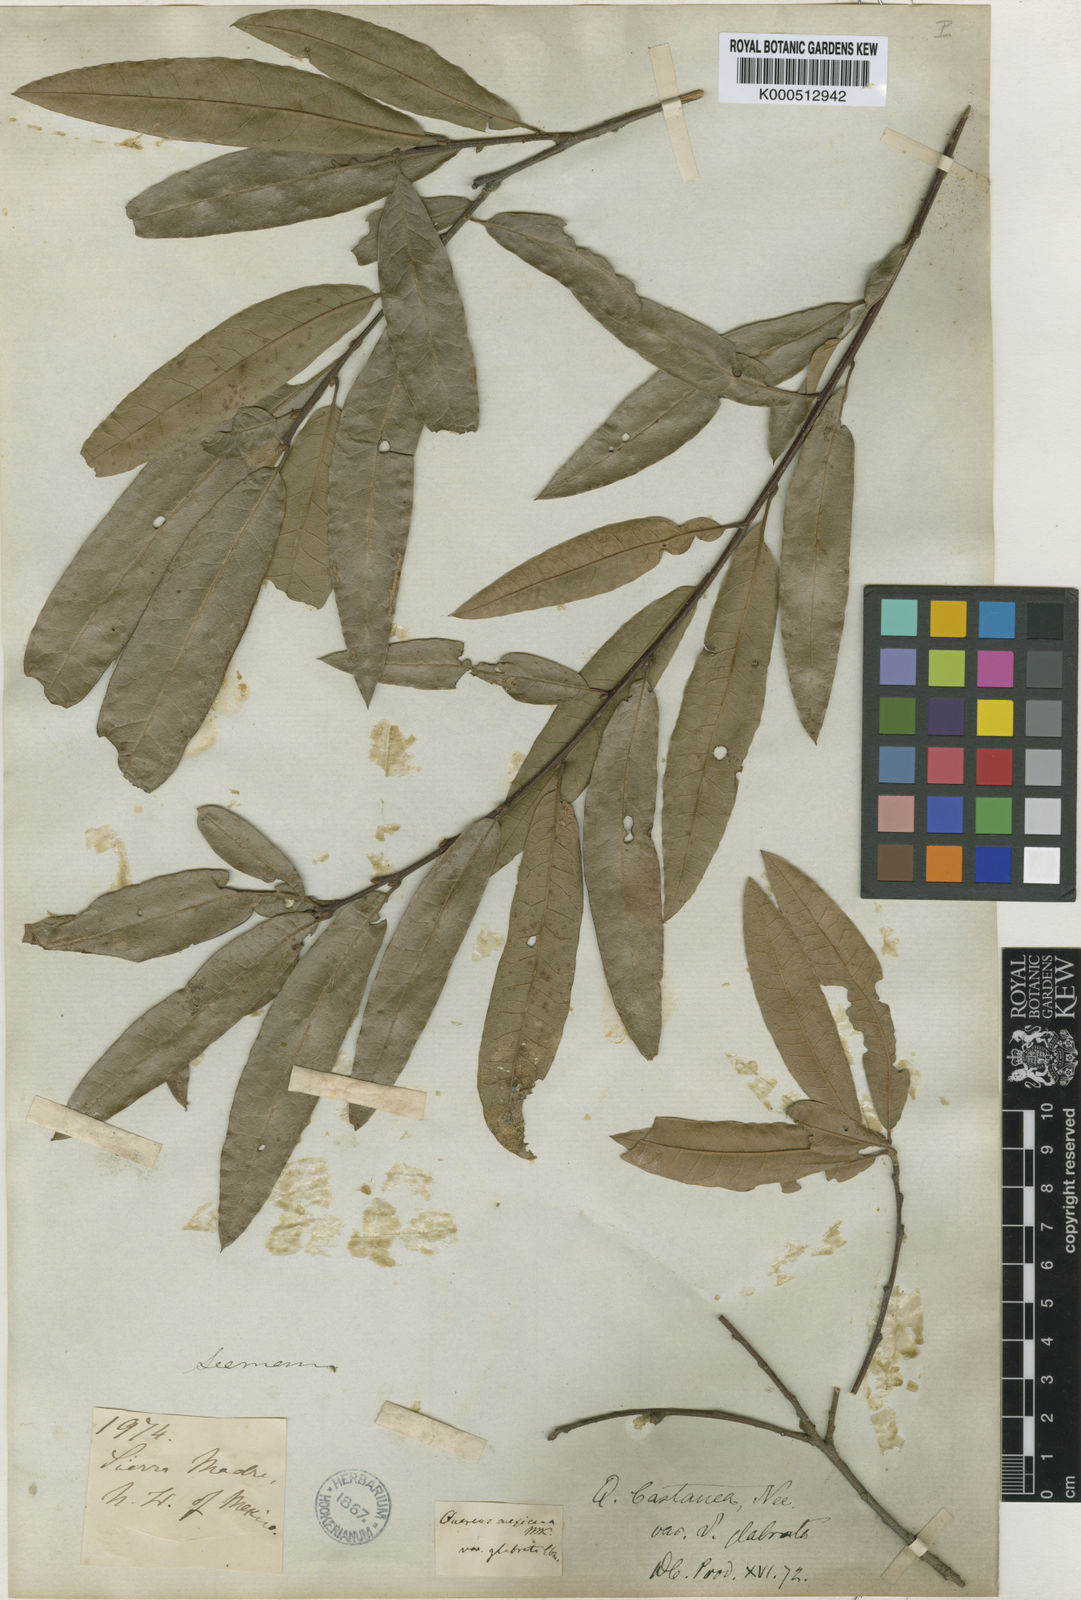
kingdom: Plantae
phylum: Tracheophyta
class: Magnoliopsida
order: Fagales
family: Fagaceae
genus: Quercus
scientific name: Quercus salicifolia
